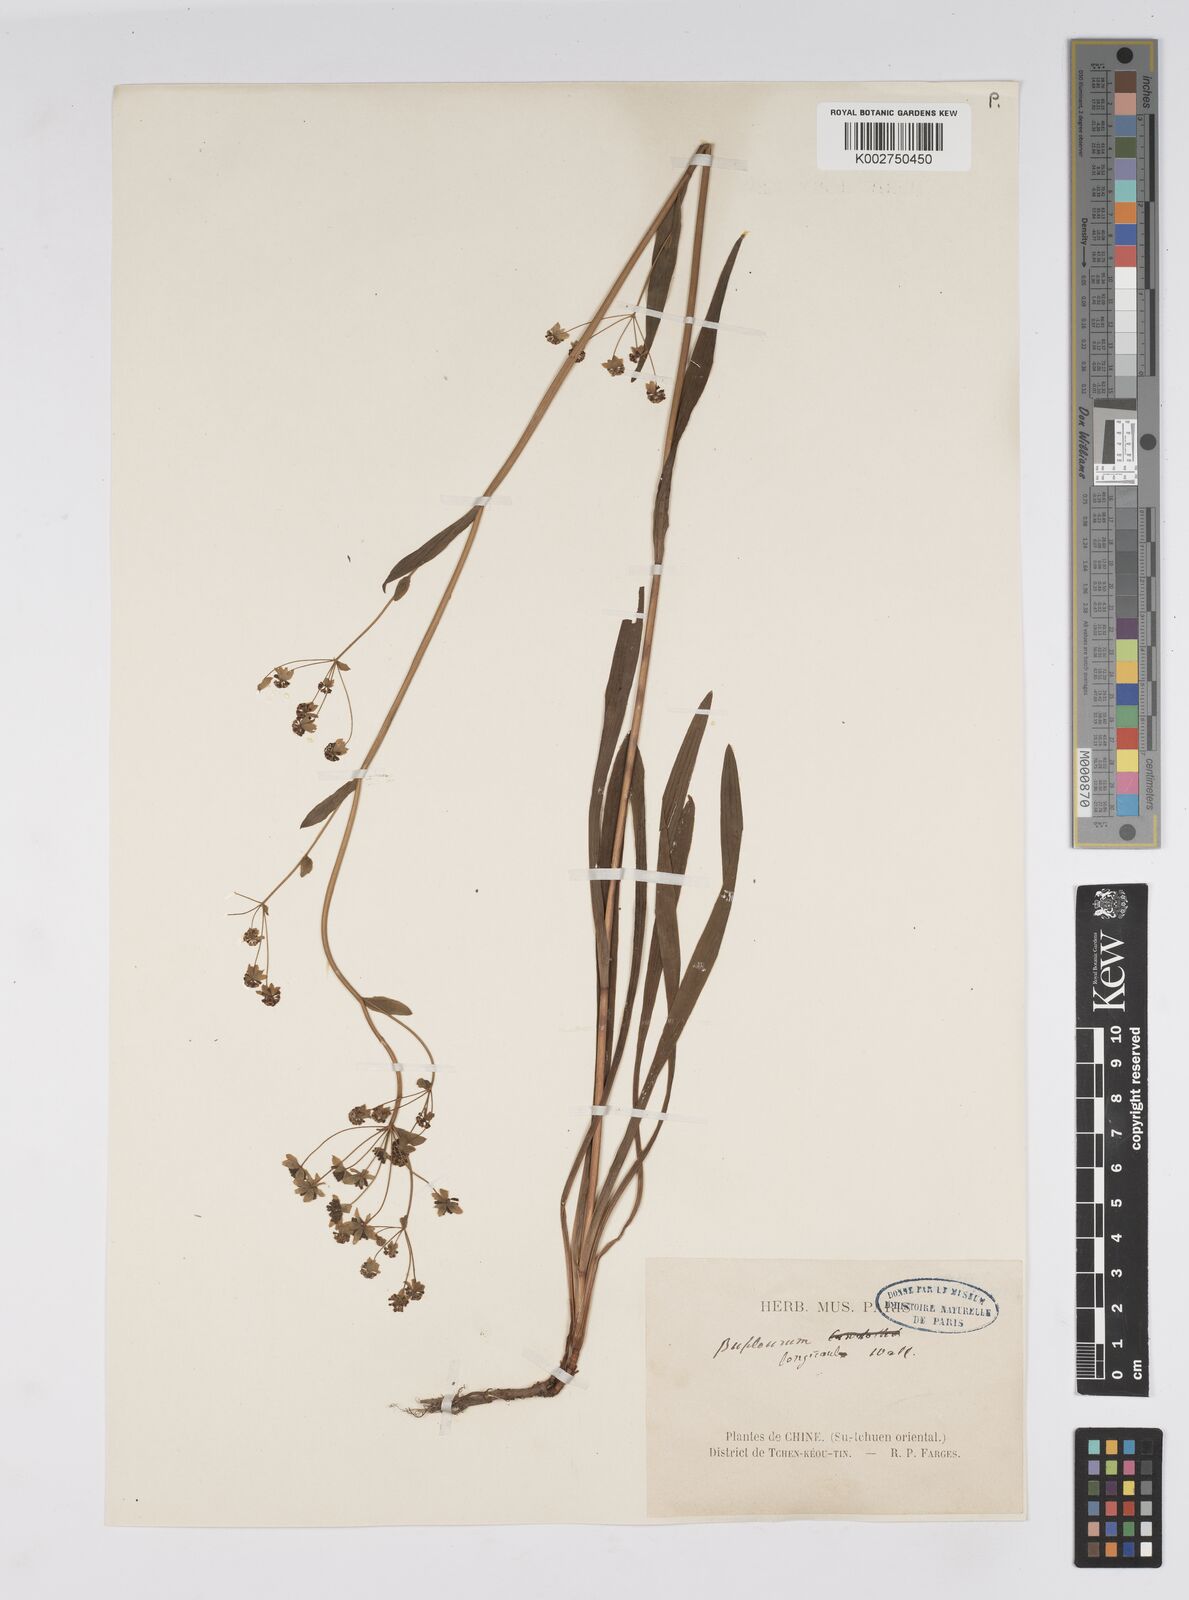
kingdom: Plantae
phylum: Tracheophyta
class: Magnoliopsida
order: Apiales
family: Apiaceae
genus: Bupleurum
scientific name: Bupleurum longicaule
